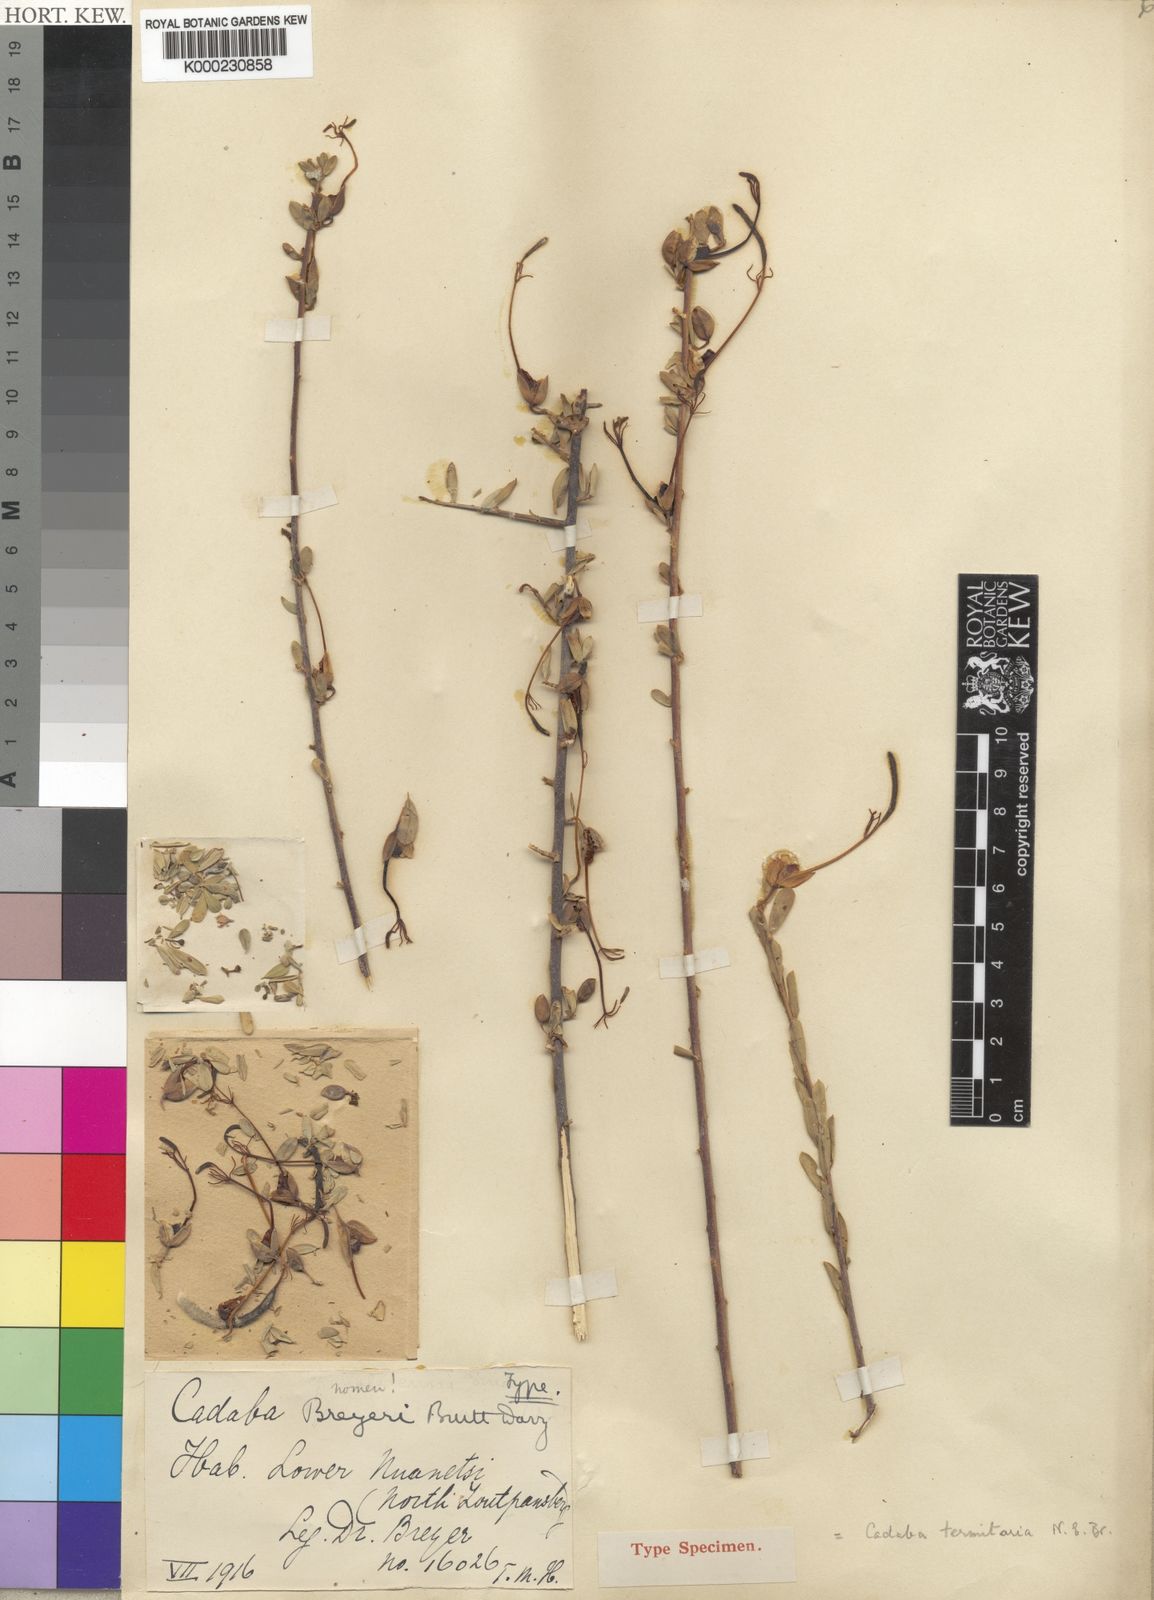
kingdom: Plantae
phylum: Tracheophyta
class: Magnoliopsida
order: Brassicales
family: Capparaceae
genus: Cadaba
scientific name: Cadaba termitaria
